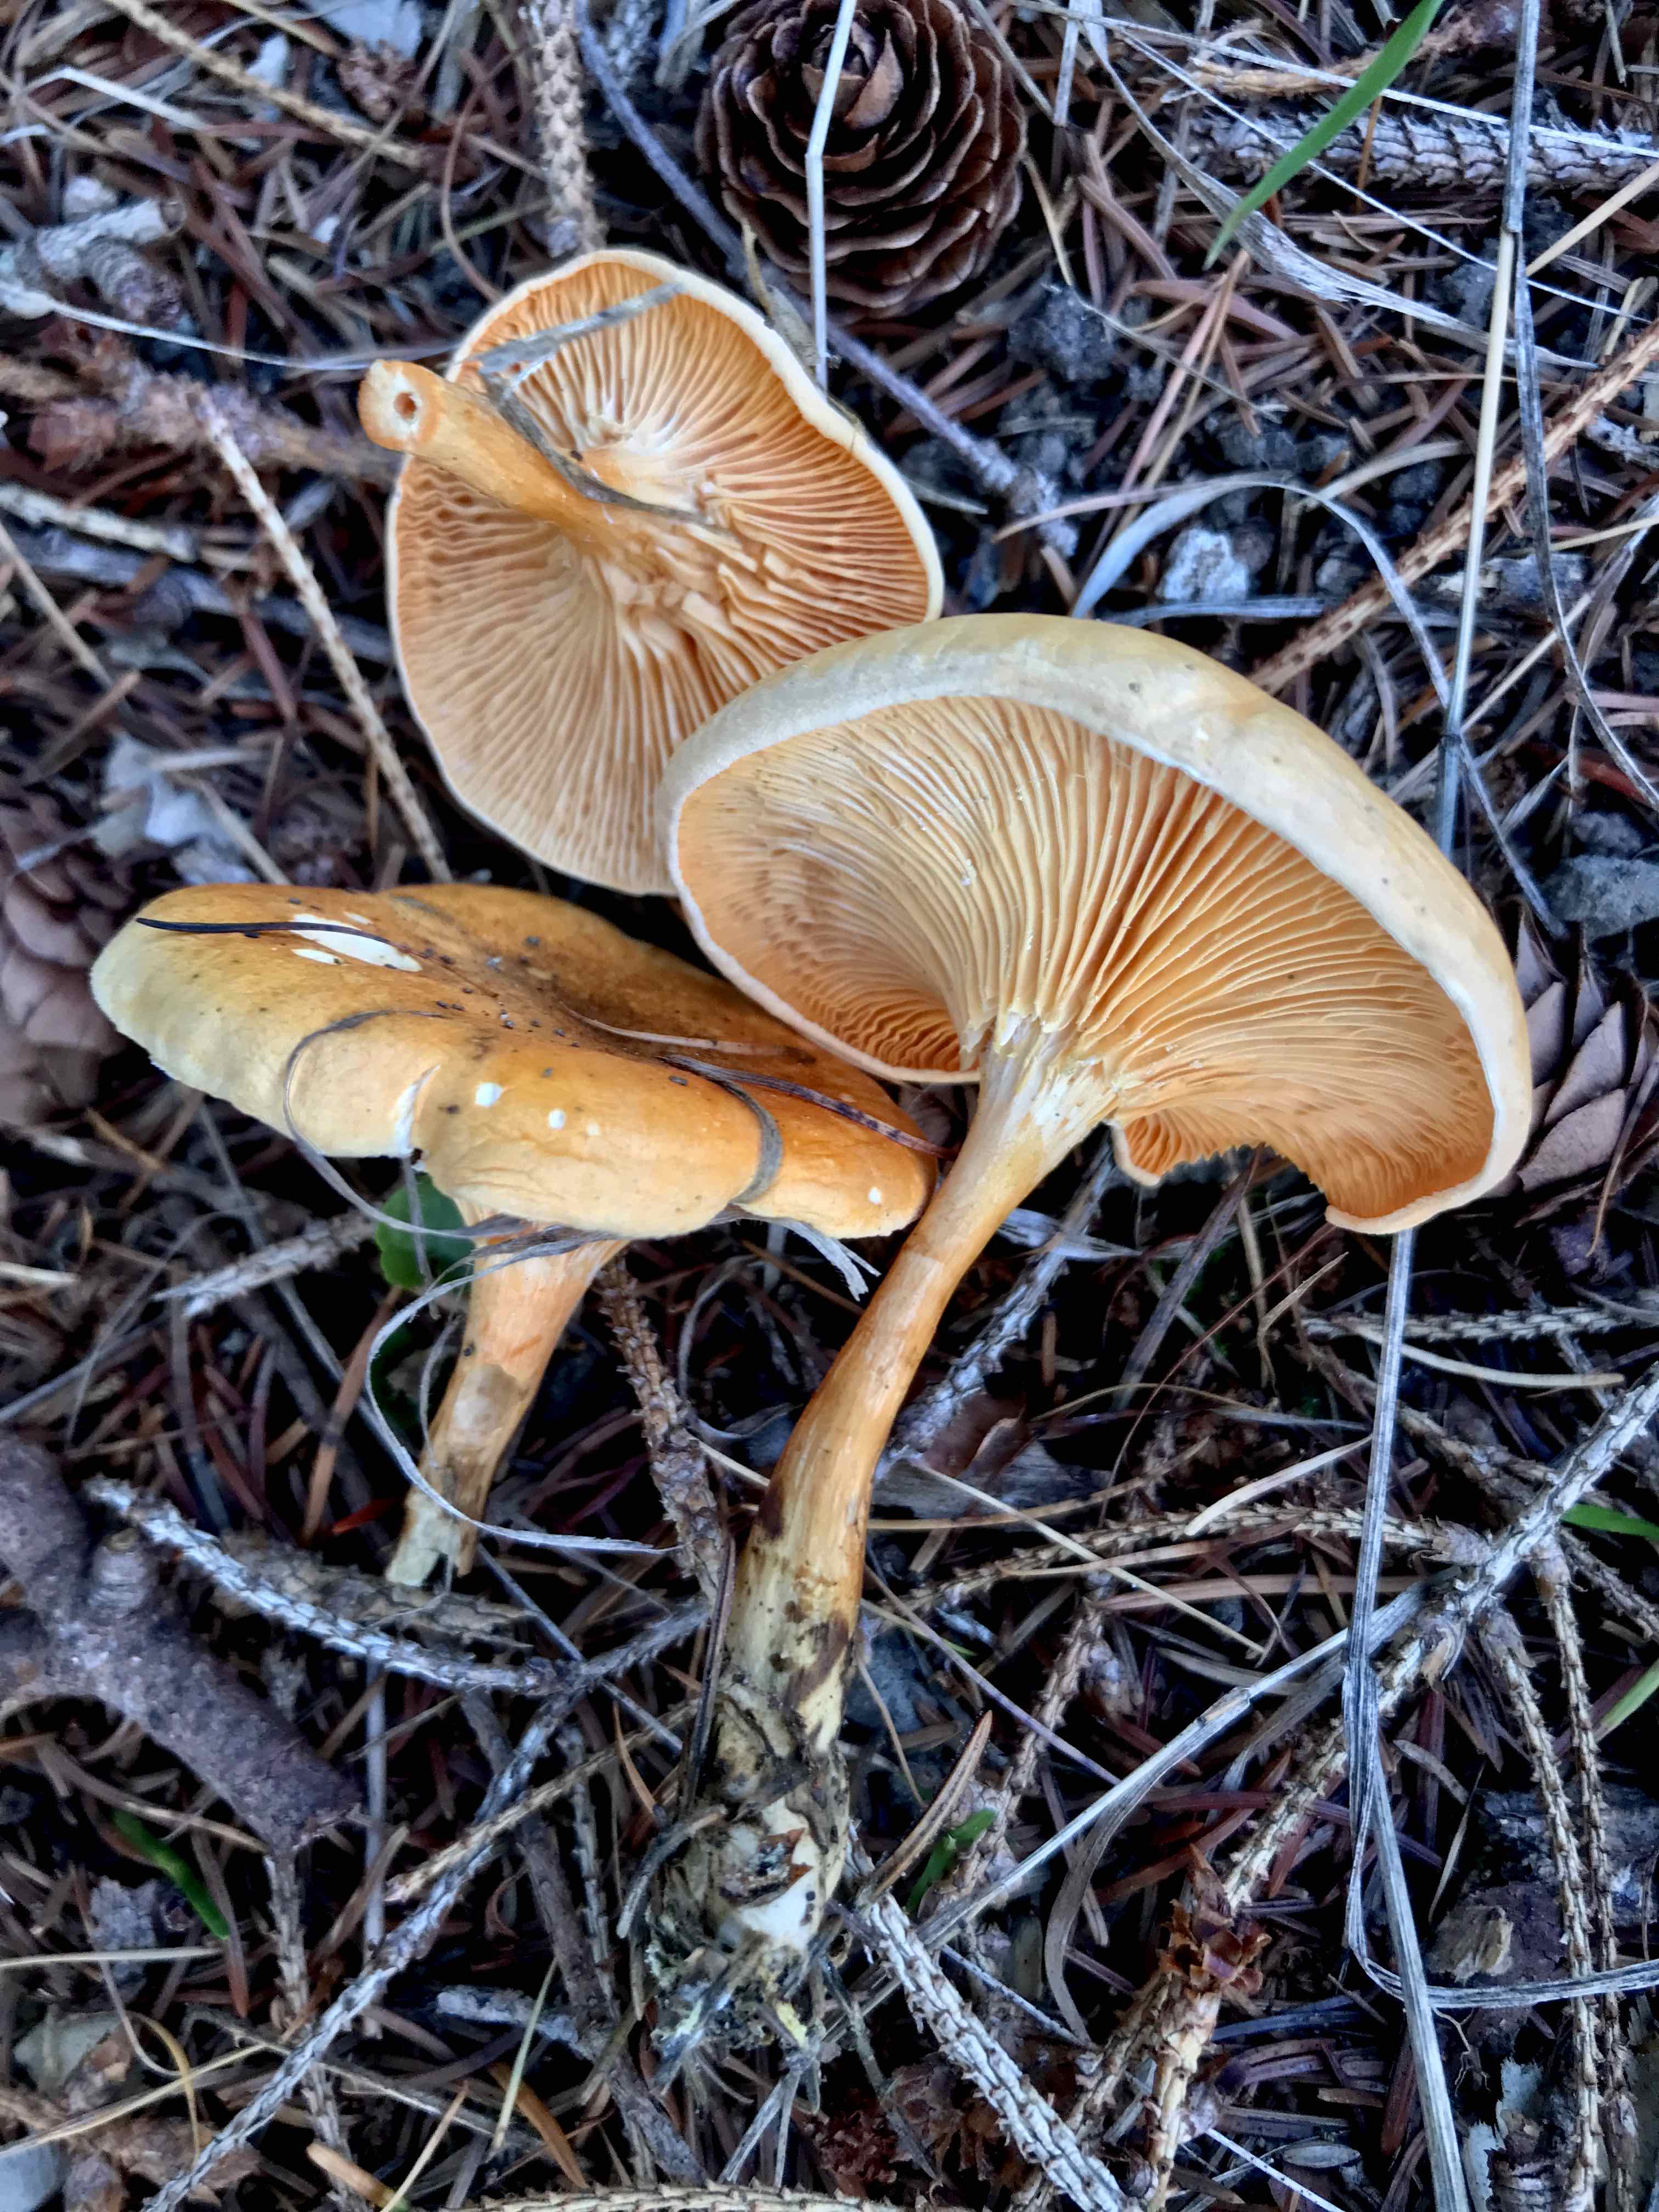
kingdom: Fungi
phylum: Basidiomycota
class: Agaricomycetes
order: Boletales
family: Hygrophoropsidaceae
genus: Hygrophoropsis
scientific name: Hygrophoropsis aurantiaca
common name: almindelig orangekantarel
